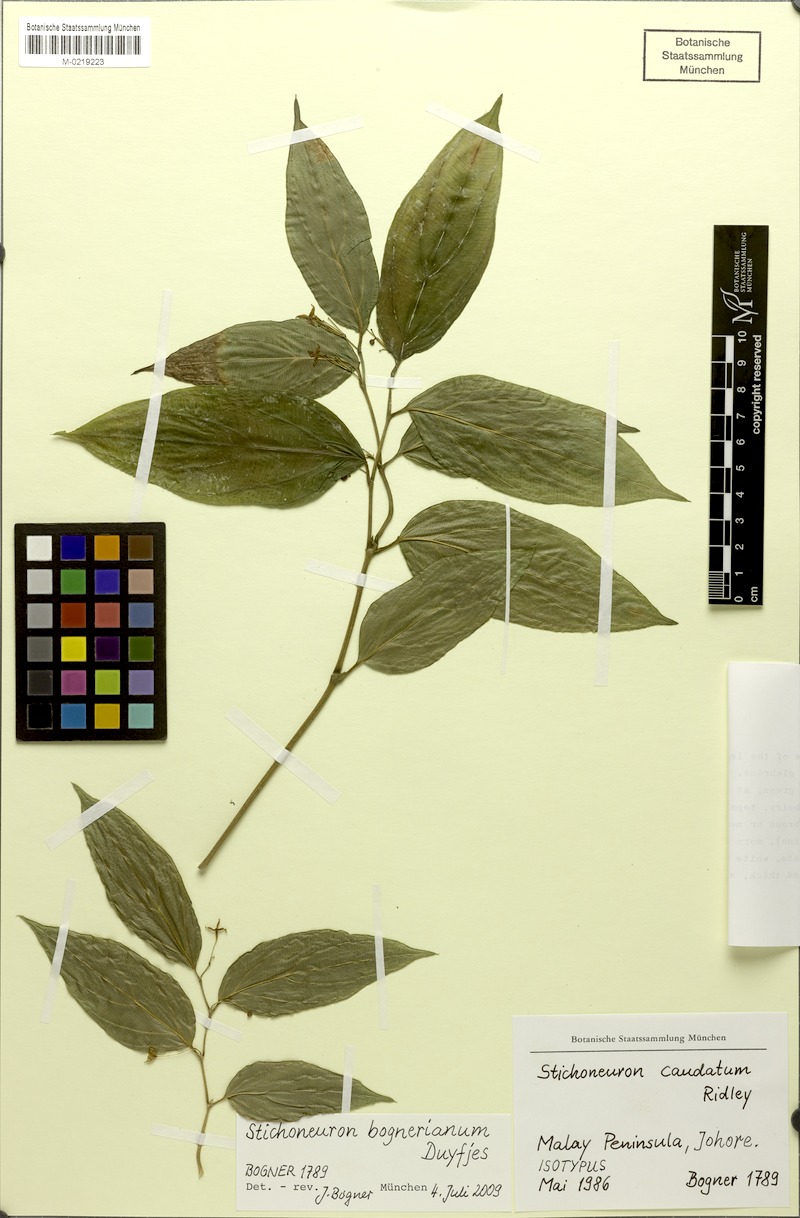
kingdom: Plantae
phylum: Tracheophyta
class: Liliopsida
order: Pandanales
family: Stemonaceae
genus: Stichoneuron
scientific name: Stichoneuron bognerianum
